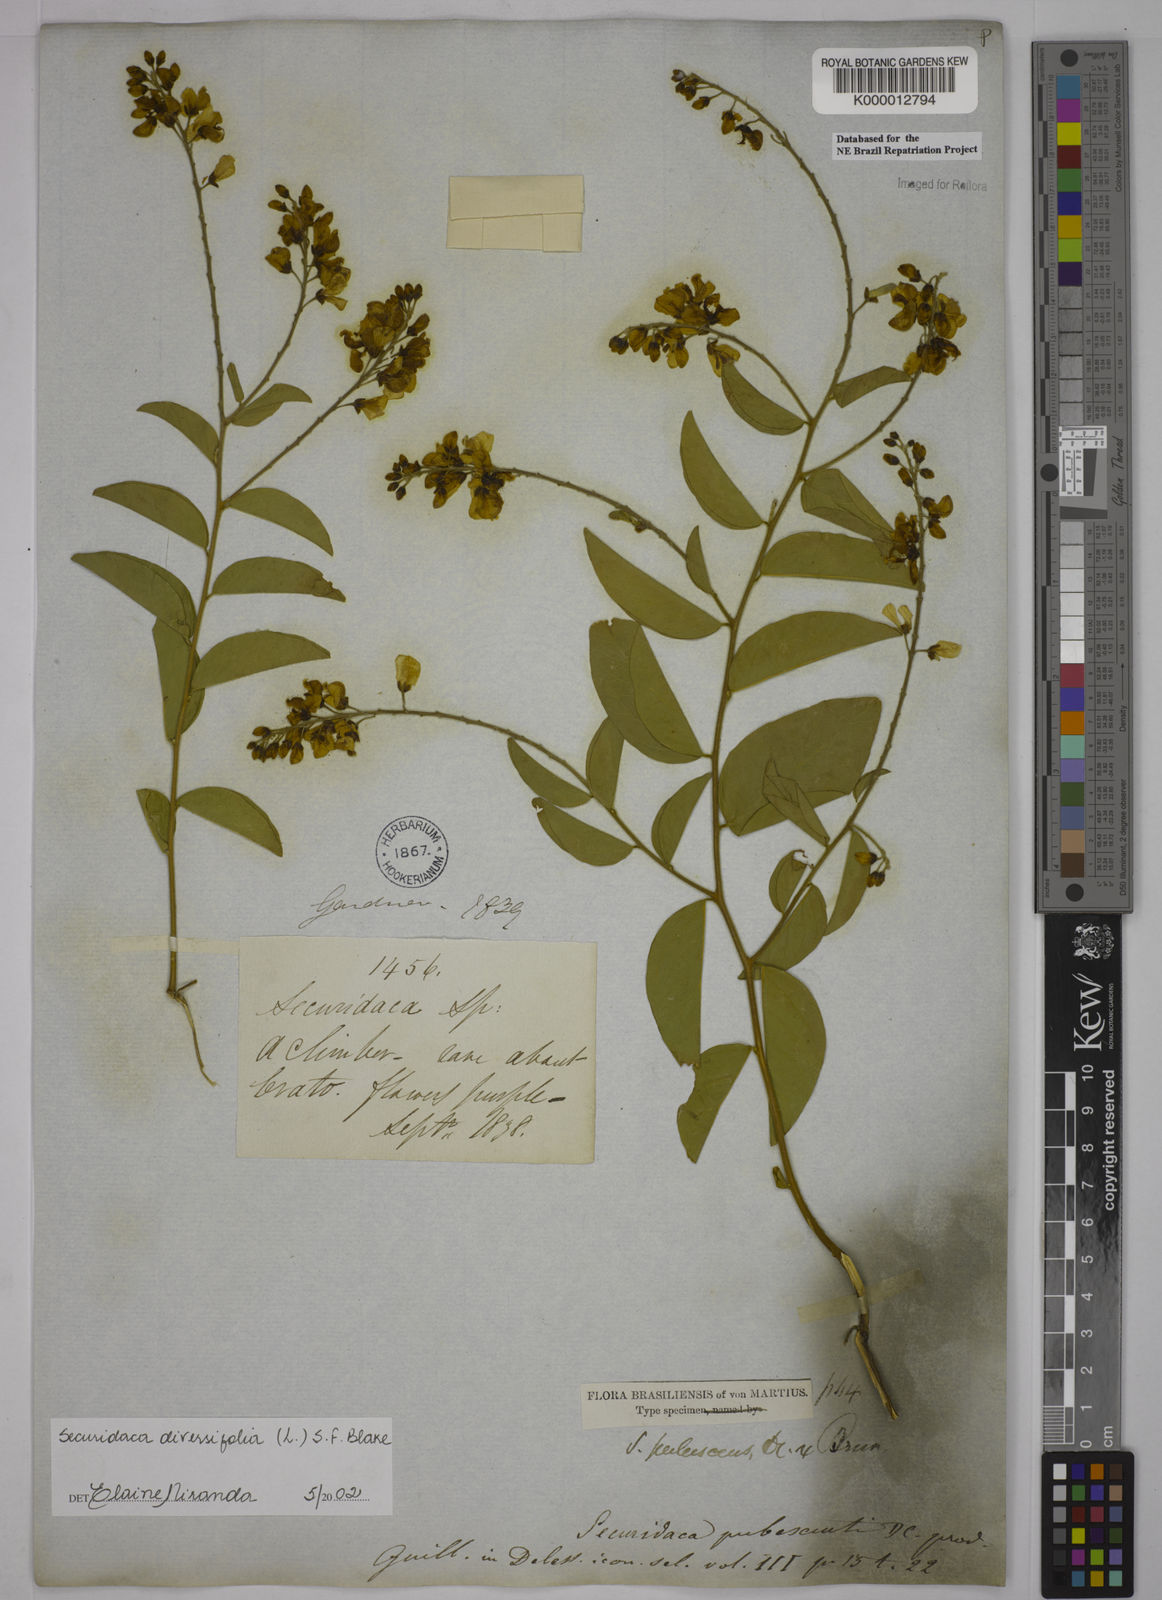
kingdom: Plantae
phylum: Tracheophyta
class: Magnoliopsida
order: Fabales
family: Polygalaceae
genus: Securidaca
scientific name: Securidaca diversifolia
